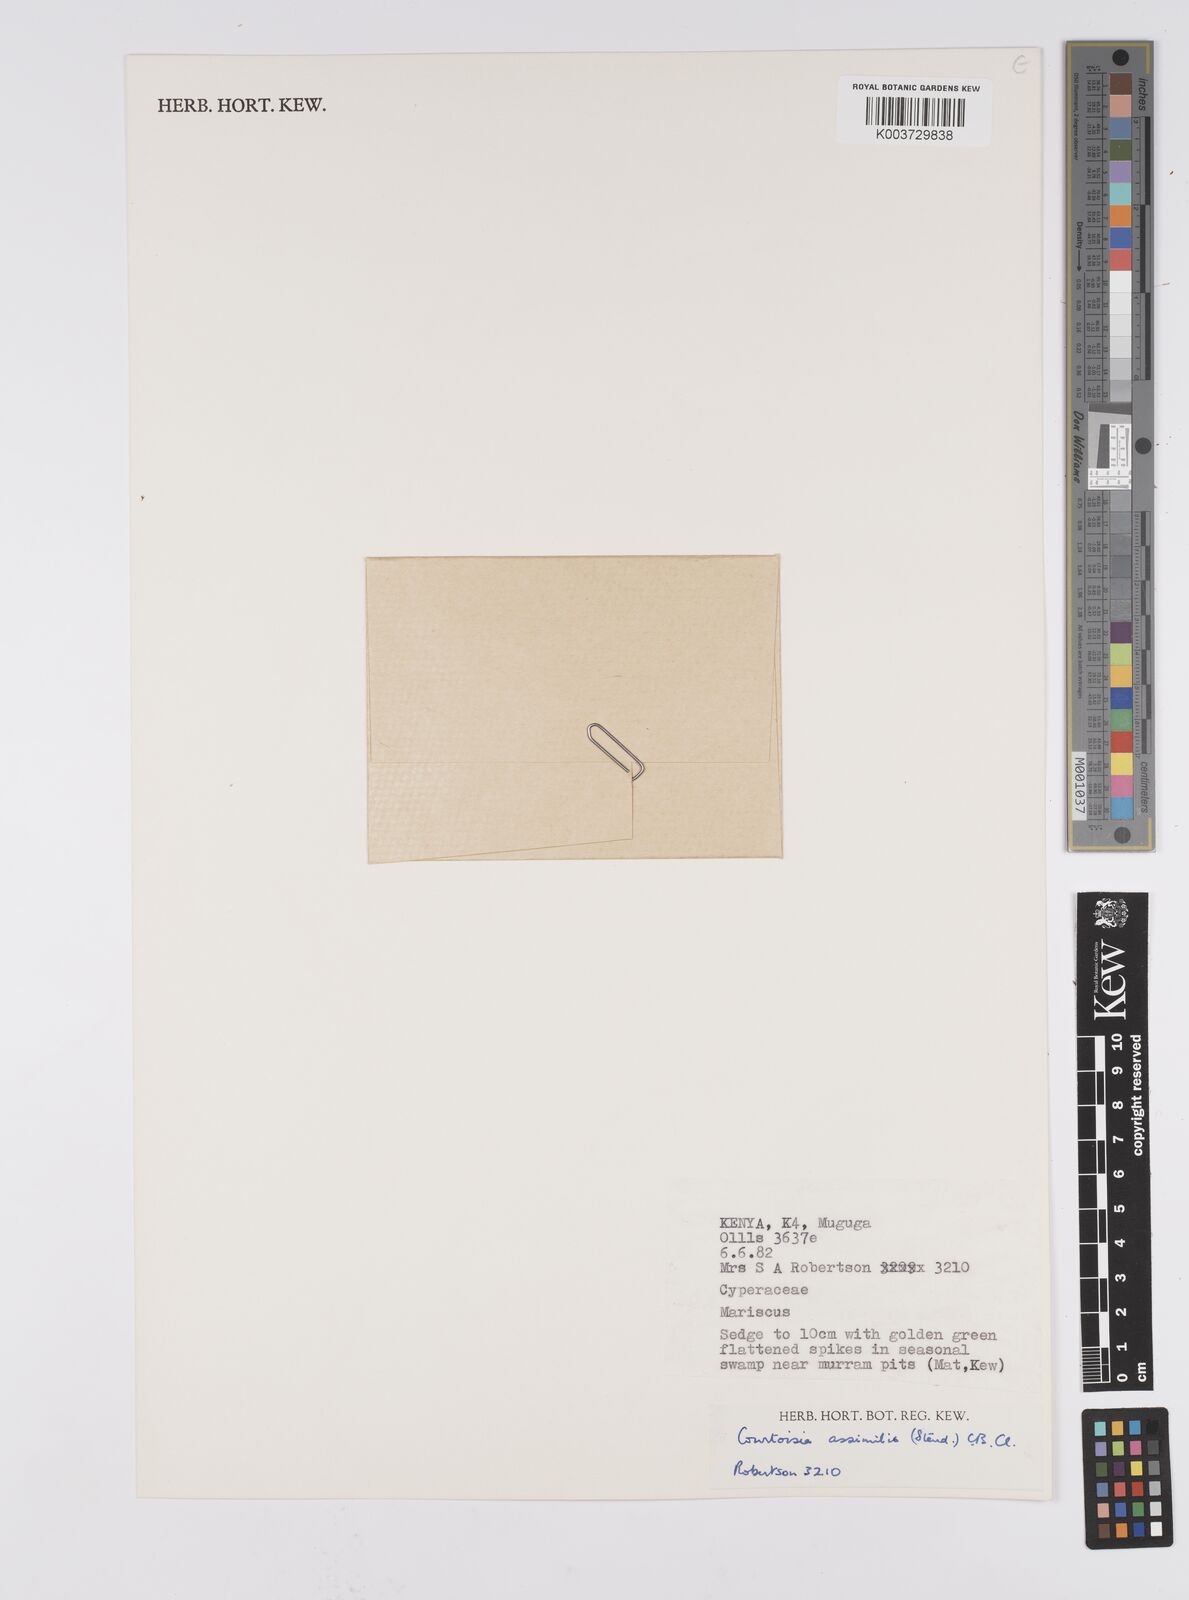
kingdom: Plantae
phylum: Tracheophyta
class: Liliopsida
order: Poales
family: Cyperaceae
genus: Cyperus
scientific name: Cyperus assimilis
